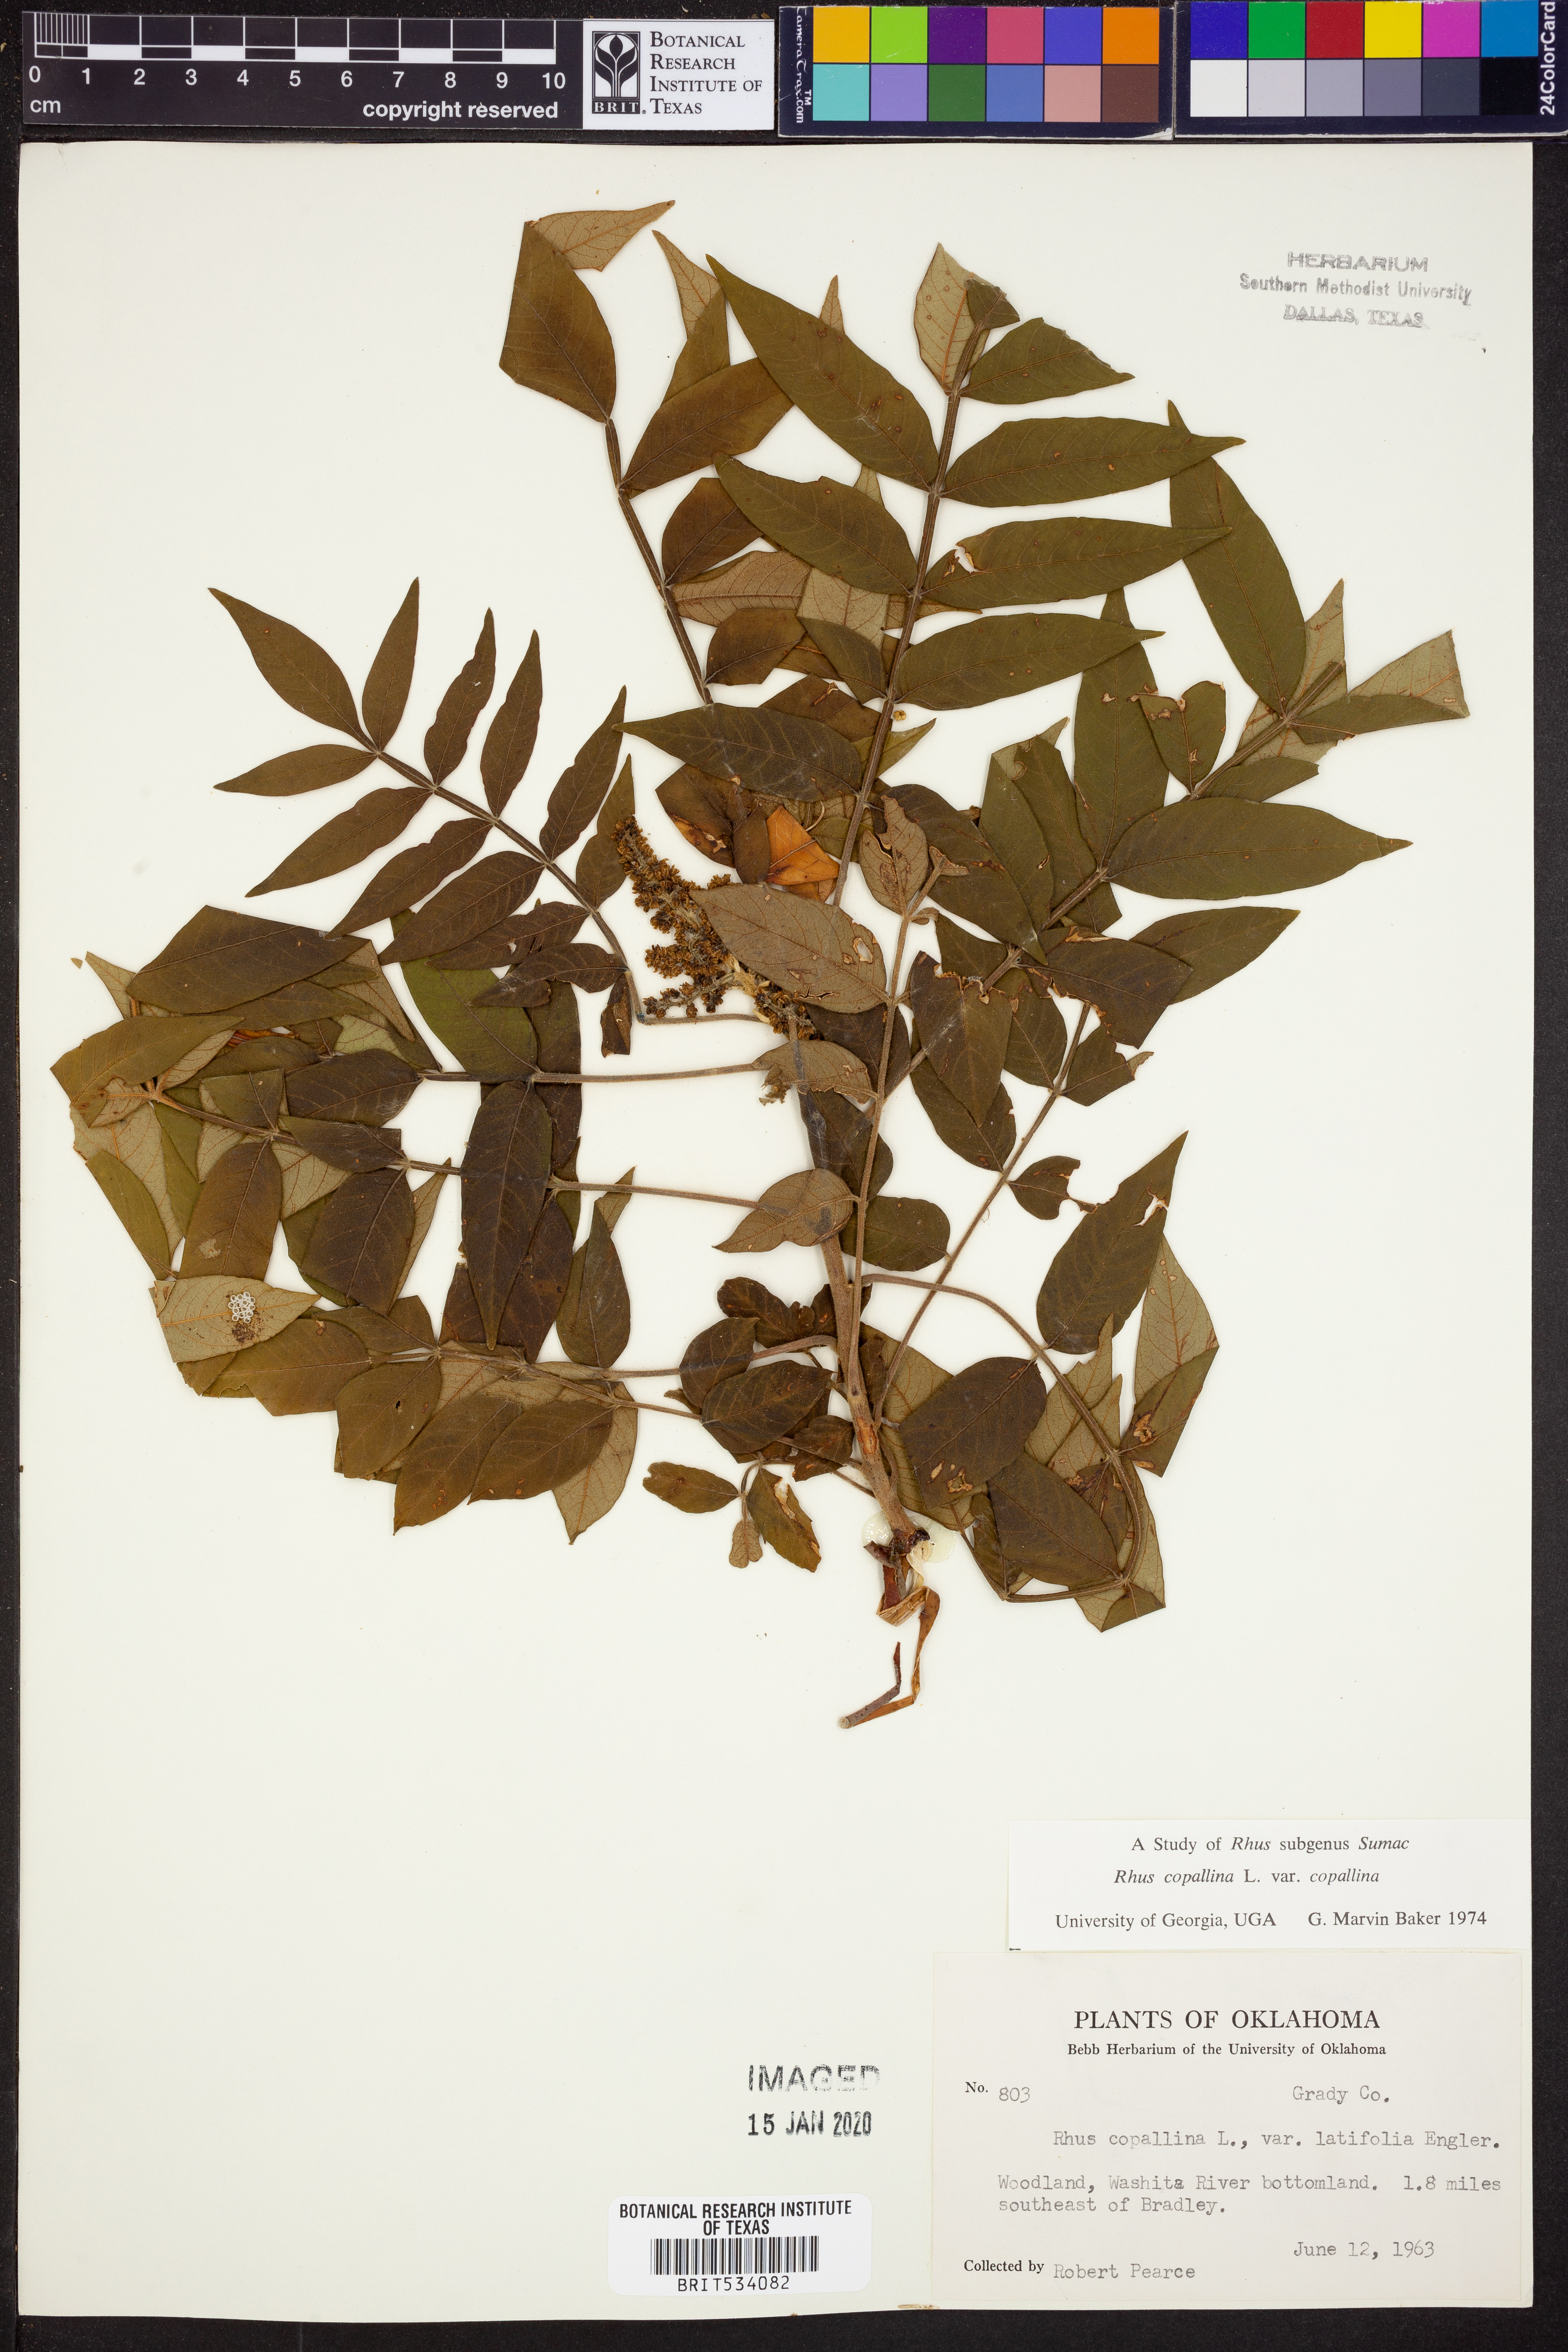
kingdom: Plantae
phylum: Tracheophyta
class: Magnoliopsida
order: Sapindales
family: Anacardiaceae
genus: Rhus
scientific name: Rhus copallina
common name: Shining sumac
